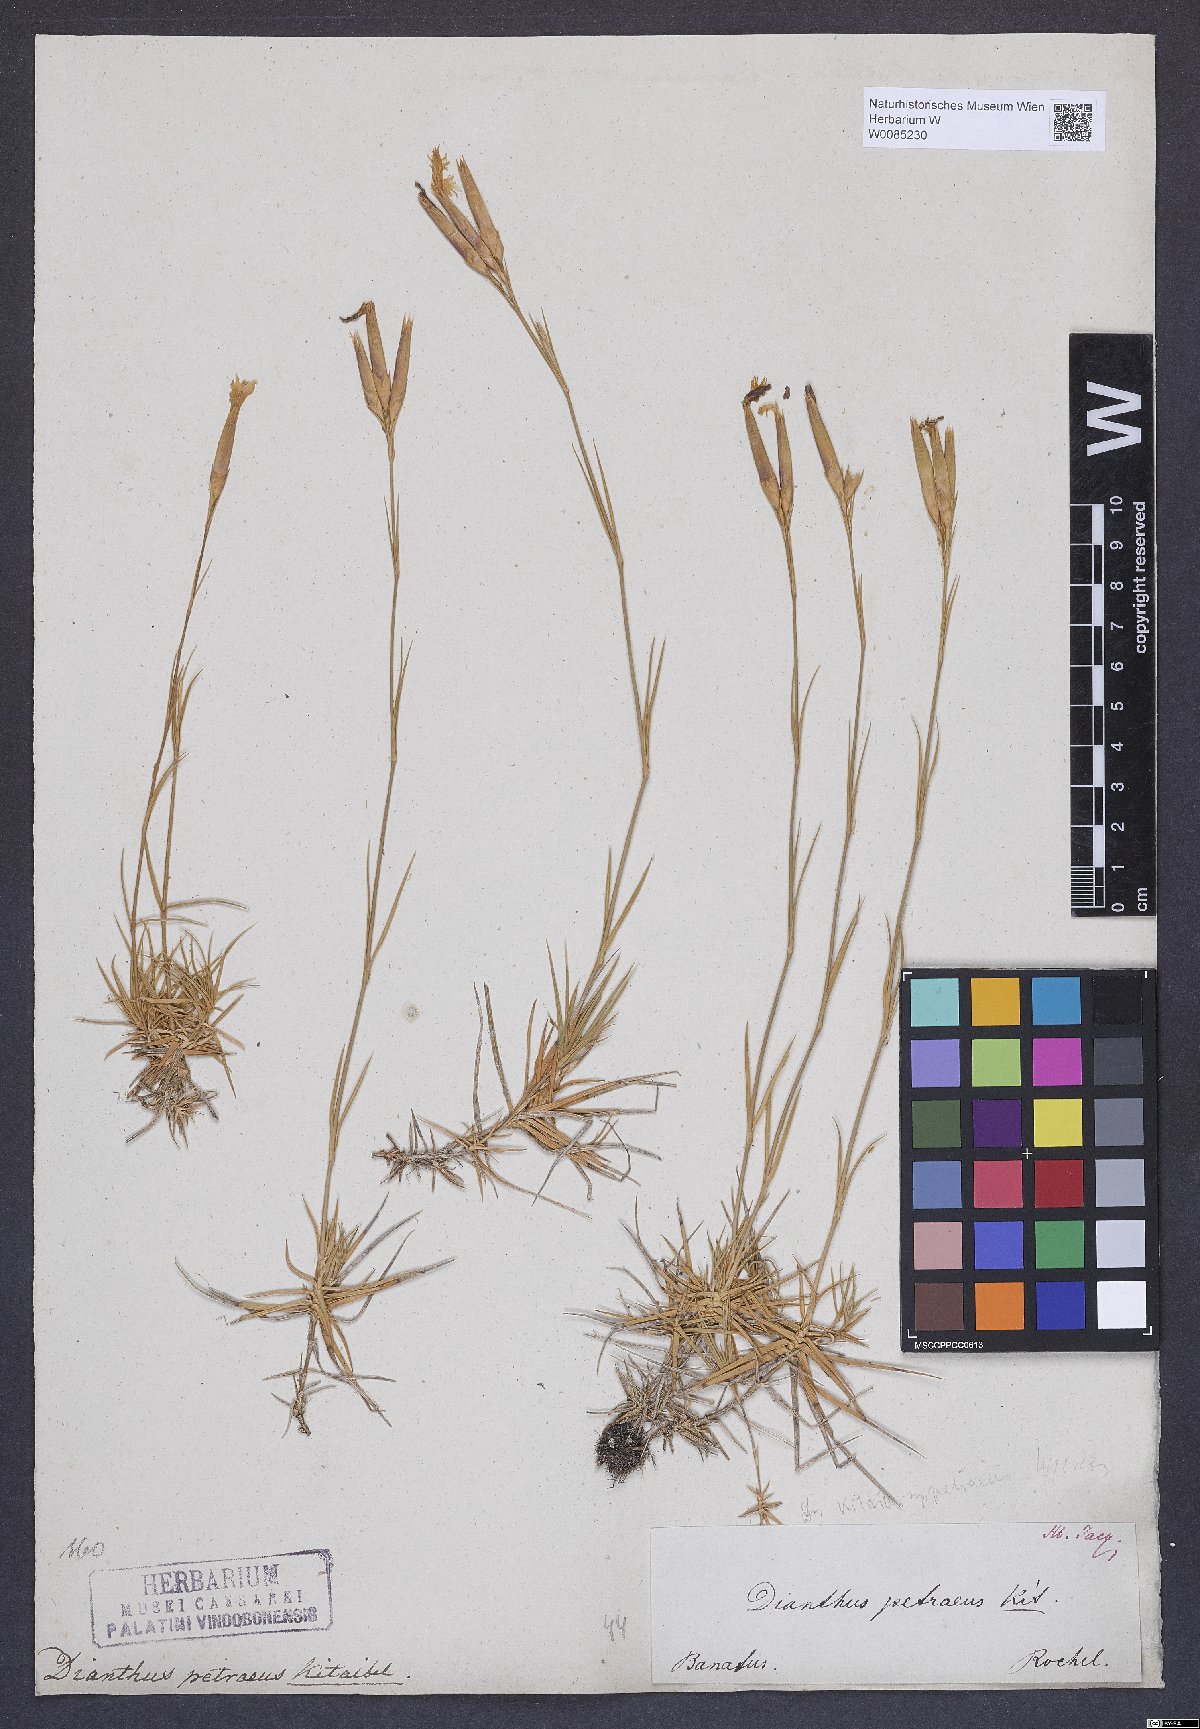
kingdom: Plantae
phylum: Tracheophyta
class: Magnoliopsida
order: Caryophyllales
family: Caryophyllaceae
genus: Dianthus
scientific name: Dianthus petraeus
